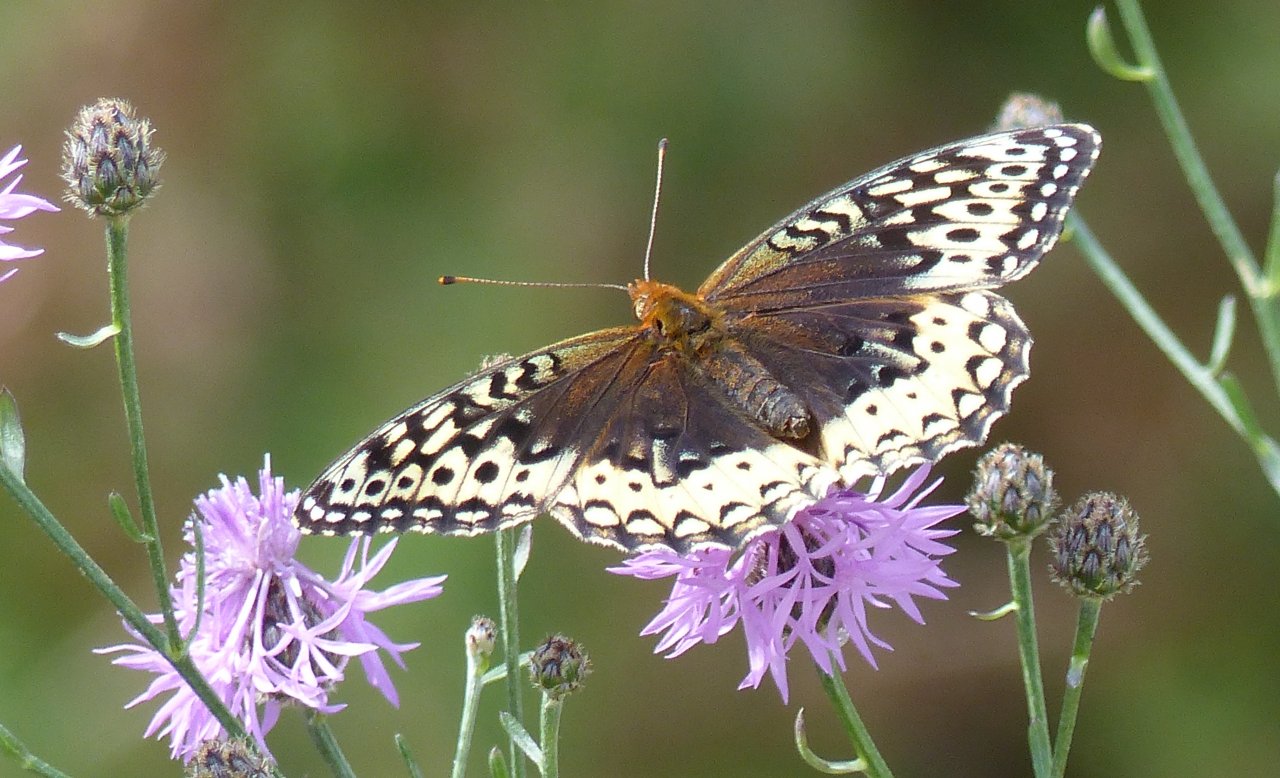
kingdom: Animalia
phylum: Arthropoda
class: Insecta
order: Lepidoptera
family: Nymphalidae
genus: Speyeria
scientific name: Speyeria cybele
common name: Great Spangled Fritillary
